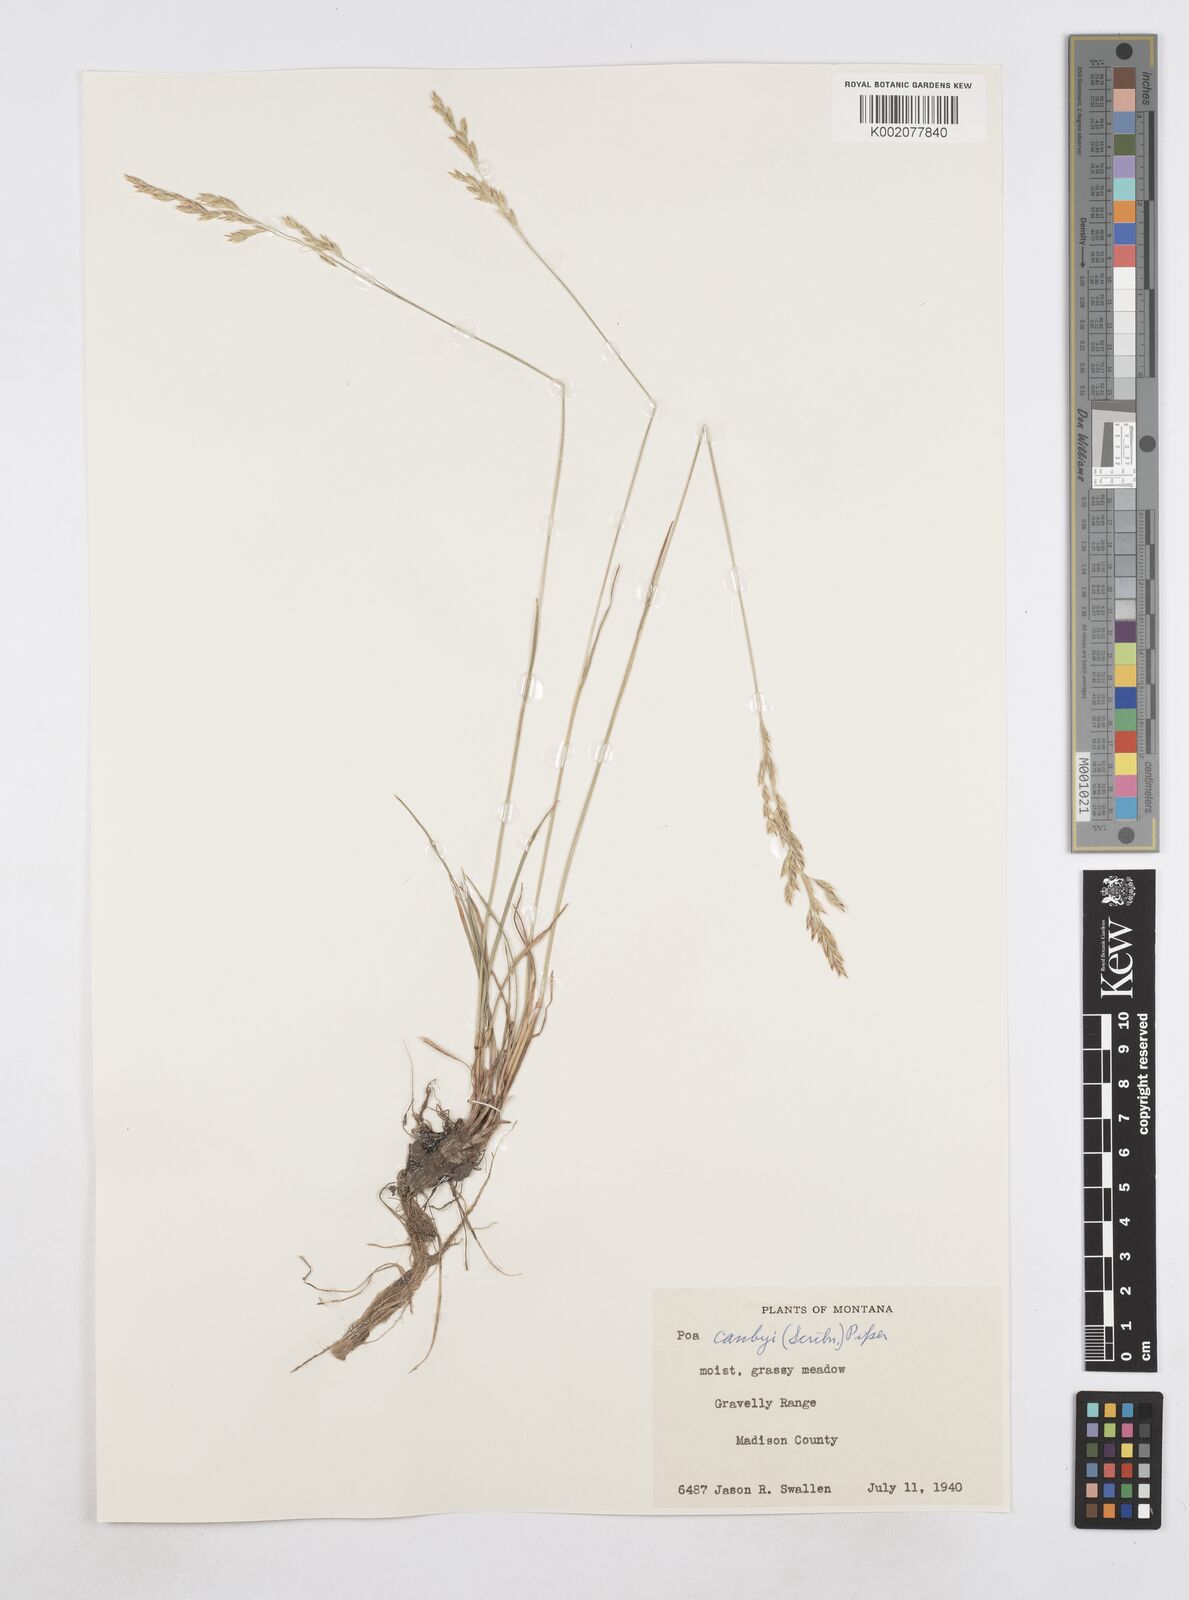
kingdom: Plantae
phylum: Tracheophyta
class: Liliopsida
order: Poales
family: Poaceae
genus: Poa
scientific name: Poa secunda
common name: Sandberg bluegrass
